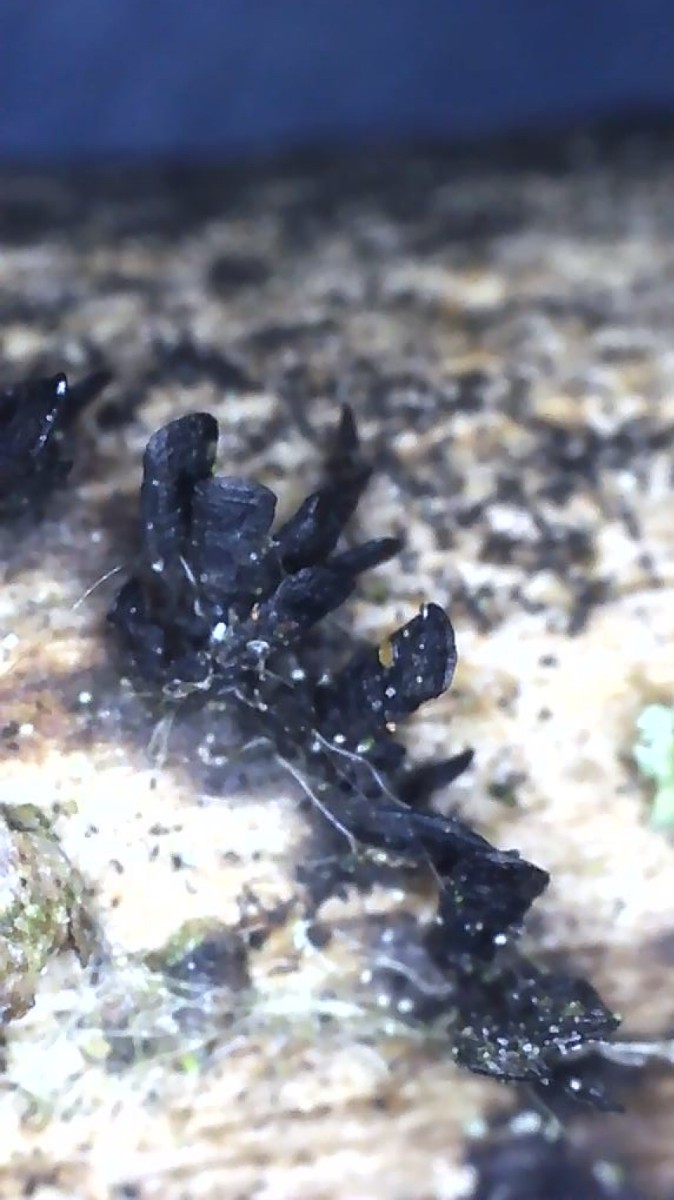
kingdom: Fungi
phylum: Ascomycota
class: Eurotiomycetes
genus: Glyphium
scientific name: Glyphium elatum
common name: kuløkse
